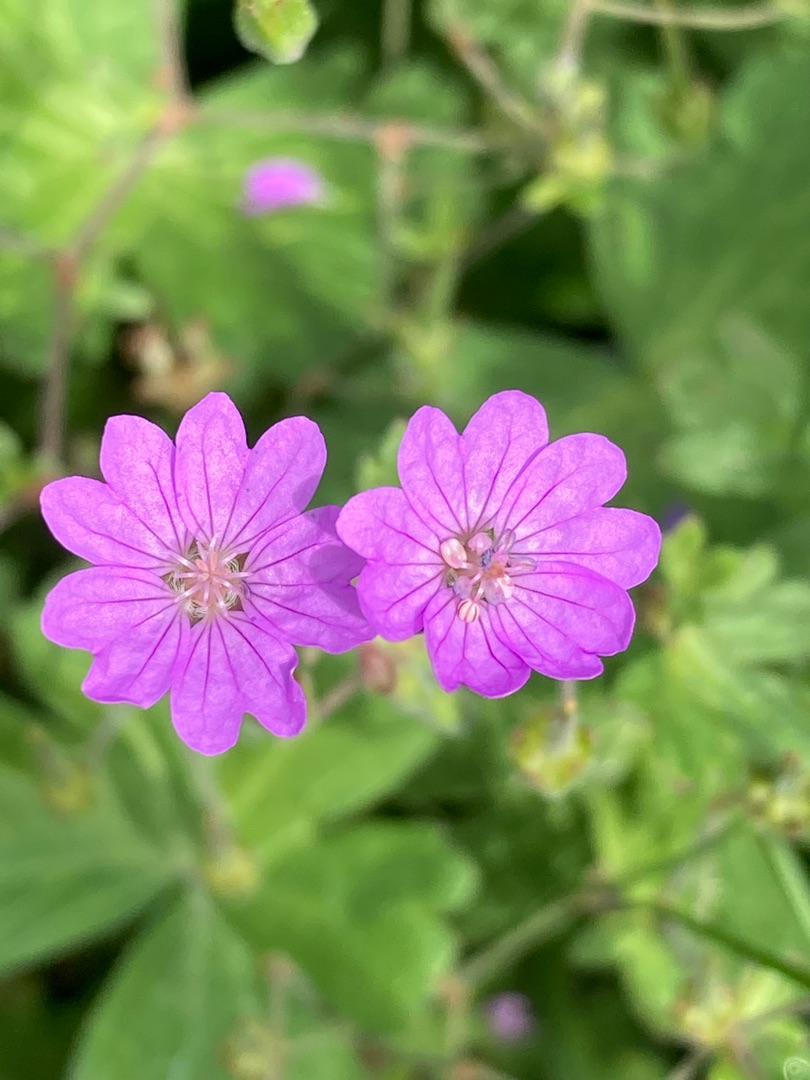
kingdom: Plantae
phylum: Tracheophyta
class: Magnoliopsida
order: Geraniales
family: Geraniaceae
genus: Geranium
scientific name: Geranium pyrenaicum
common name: Pyrenæisk storkenæb
